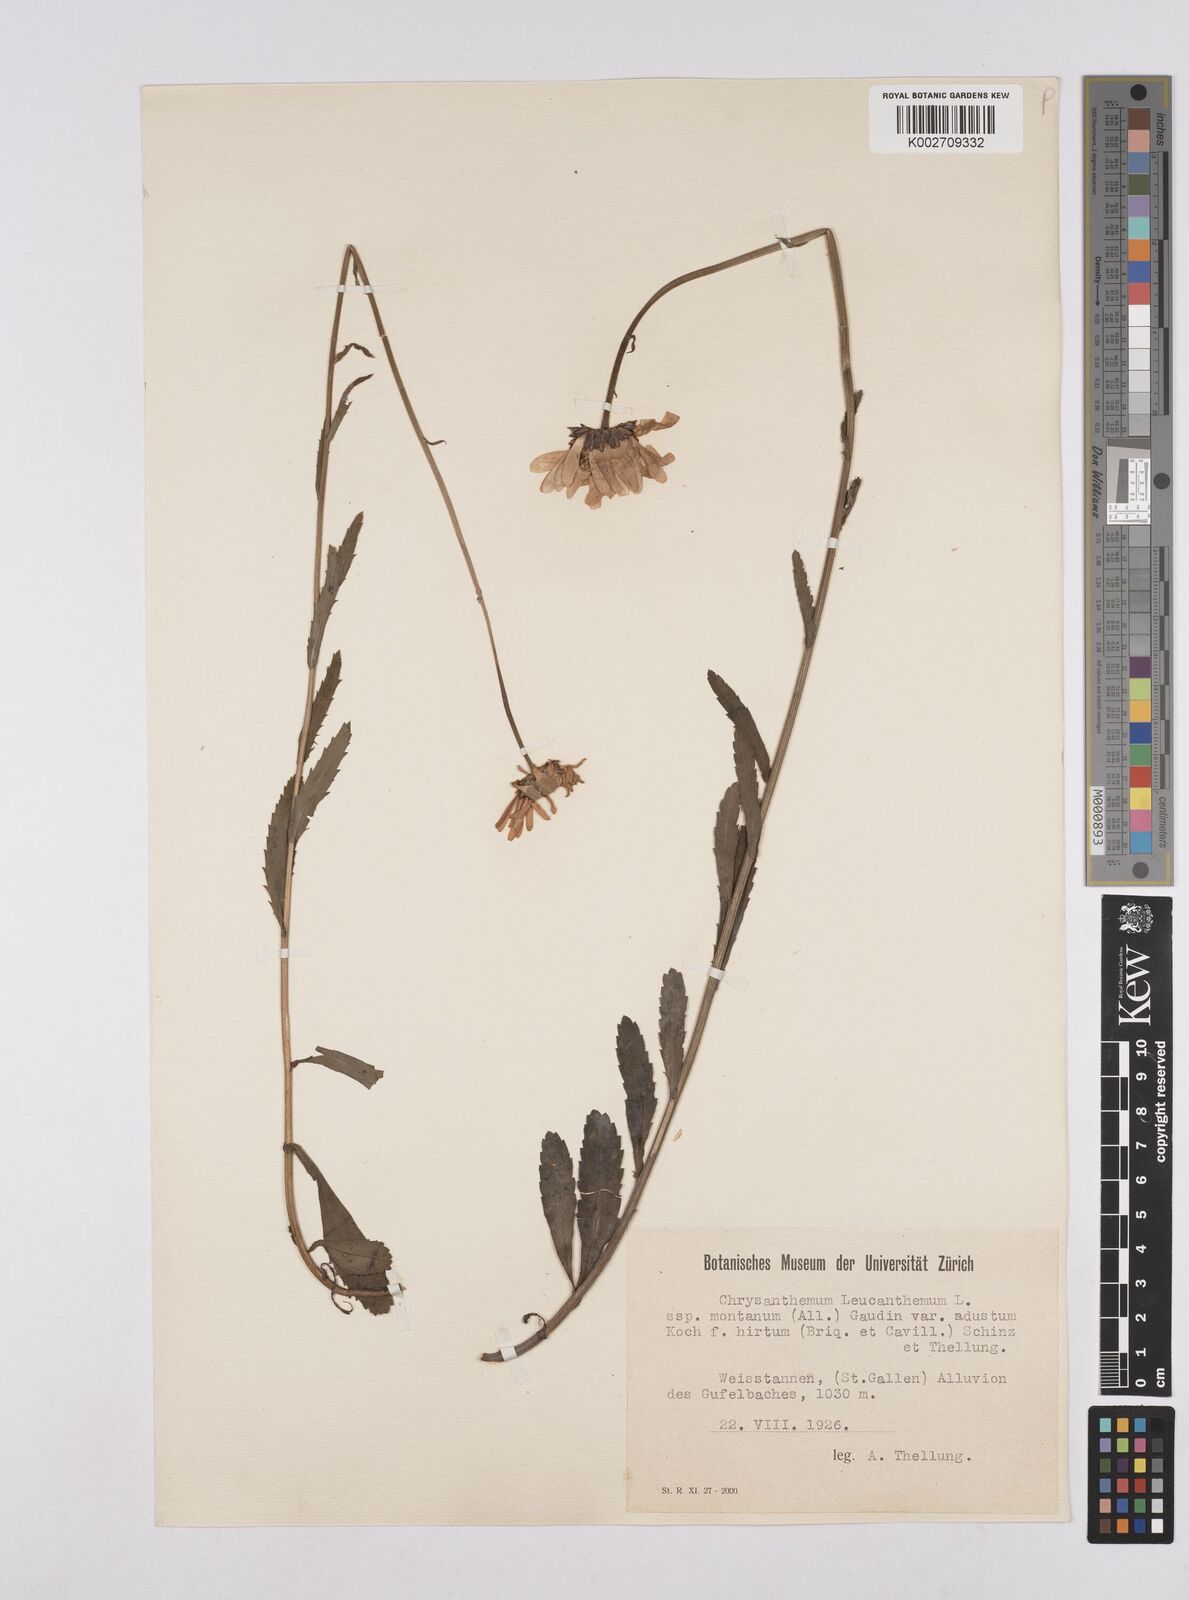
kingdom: Plantae
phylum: Tracheophyta
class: Magnoliopsida
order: Asterales
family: Asteraceae
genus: Leucanthemum
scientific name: Leucanthemum chloroticum
